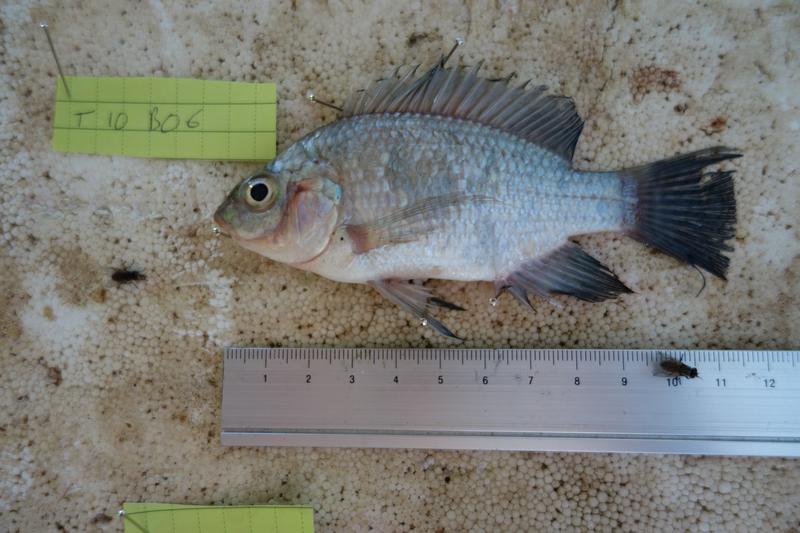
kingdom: Animalia
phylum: Chordata
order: Perciformes
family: Cichlidae
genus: Oreochromis
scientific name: Oreochromis rukwaensis
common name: Lake rukwa tilapia
